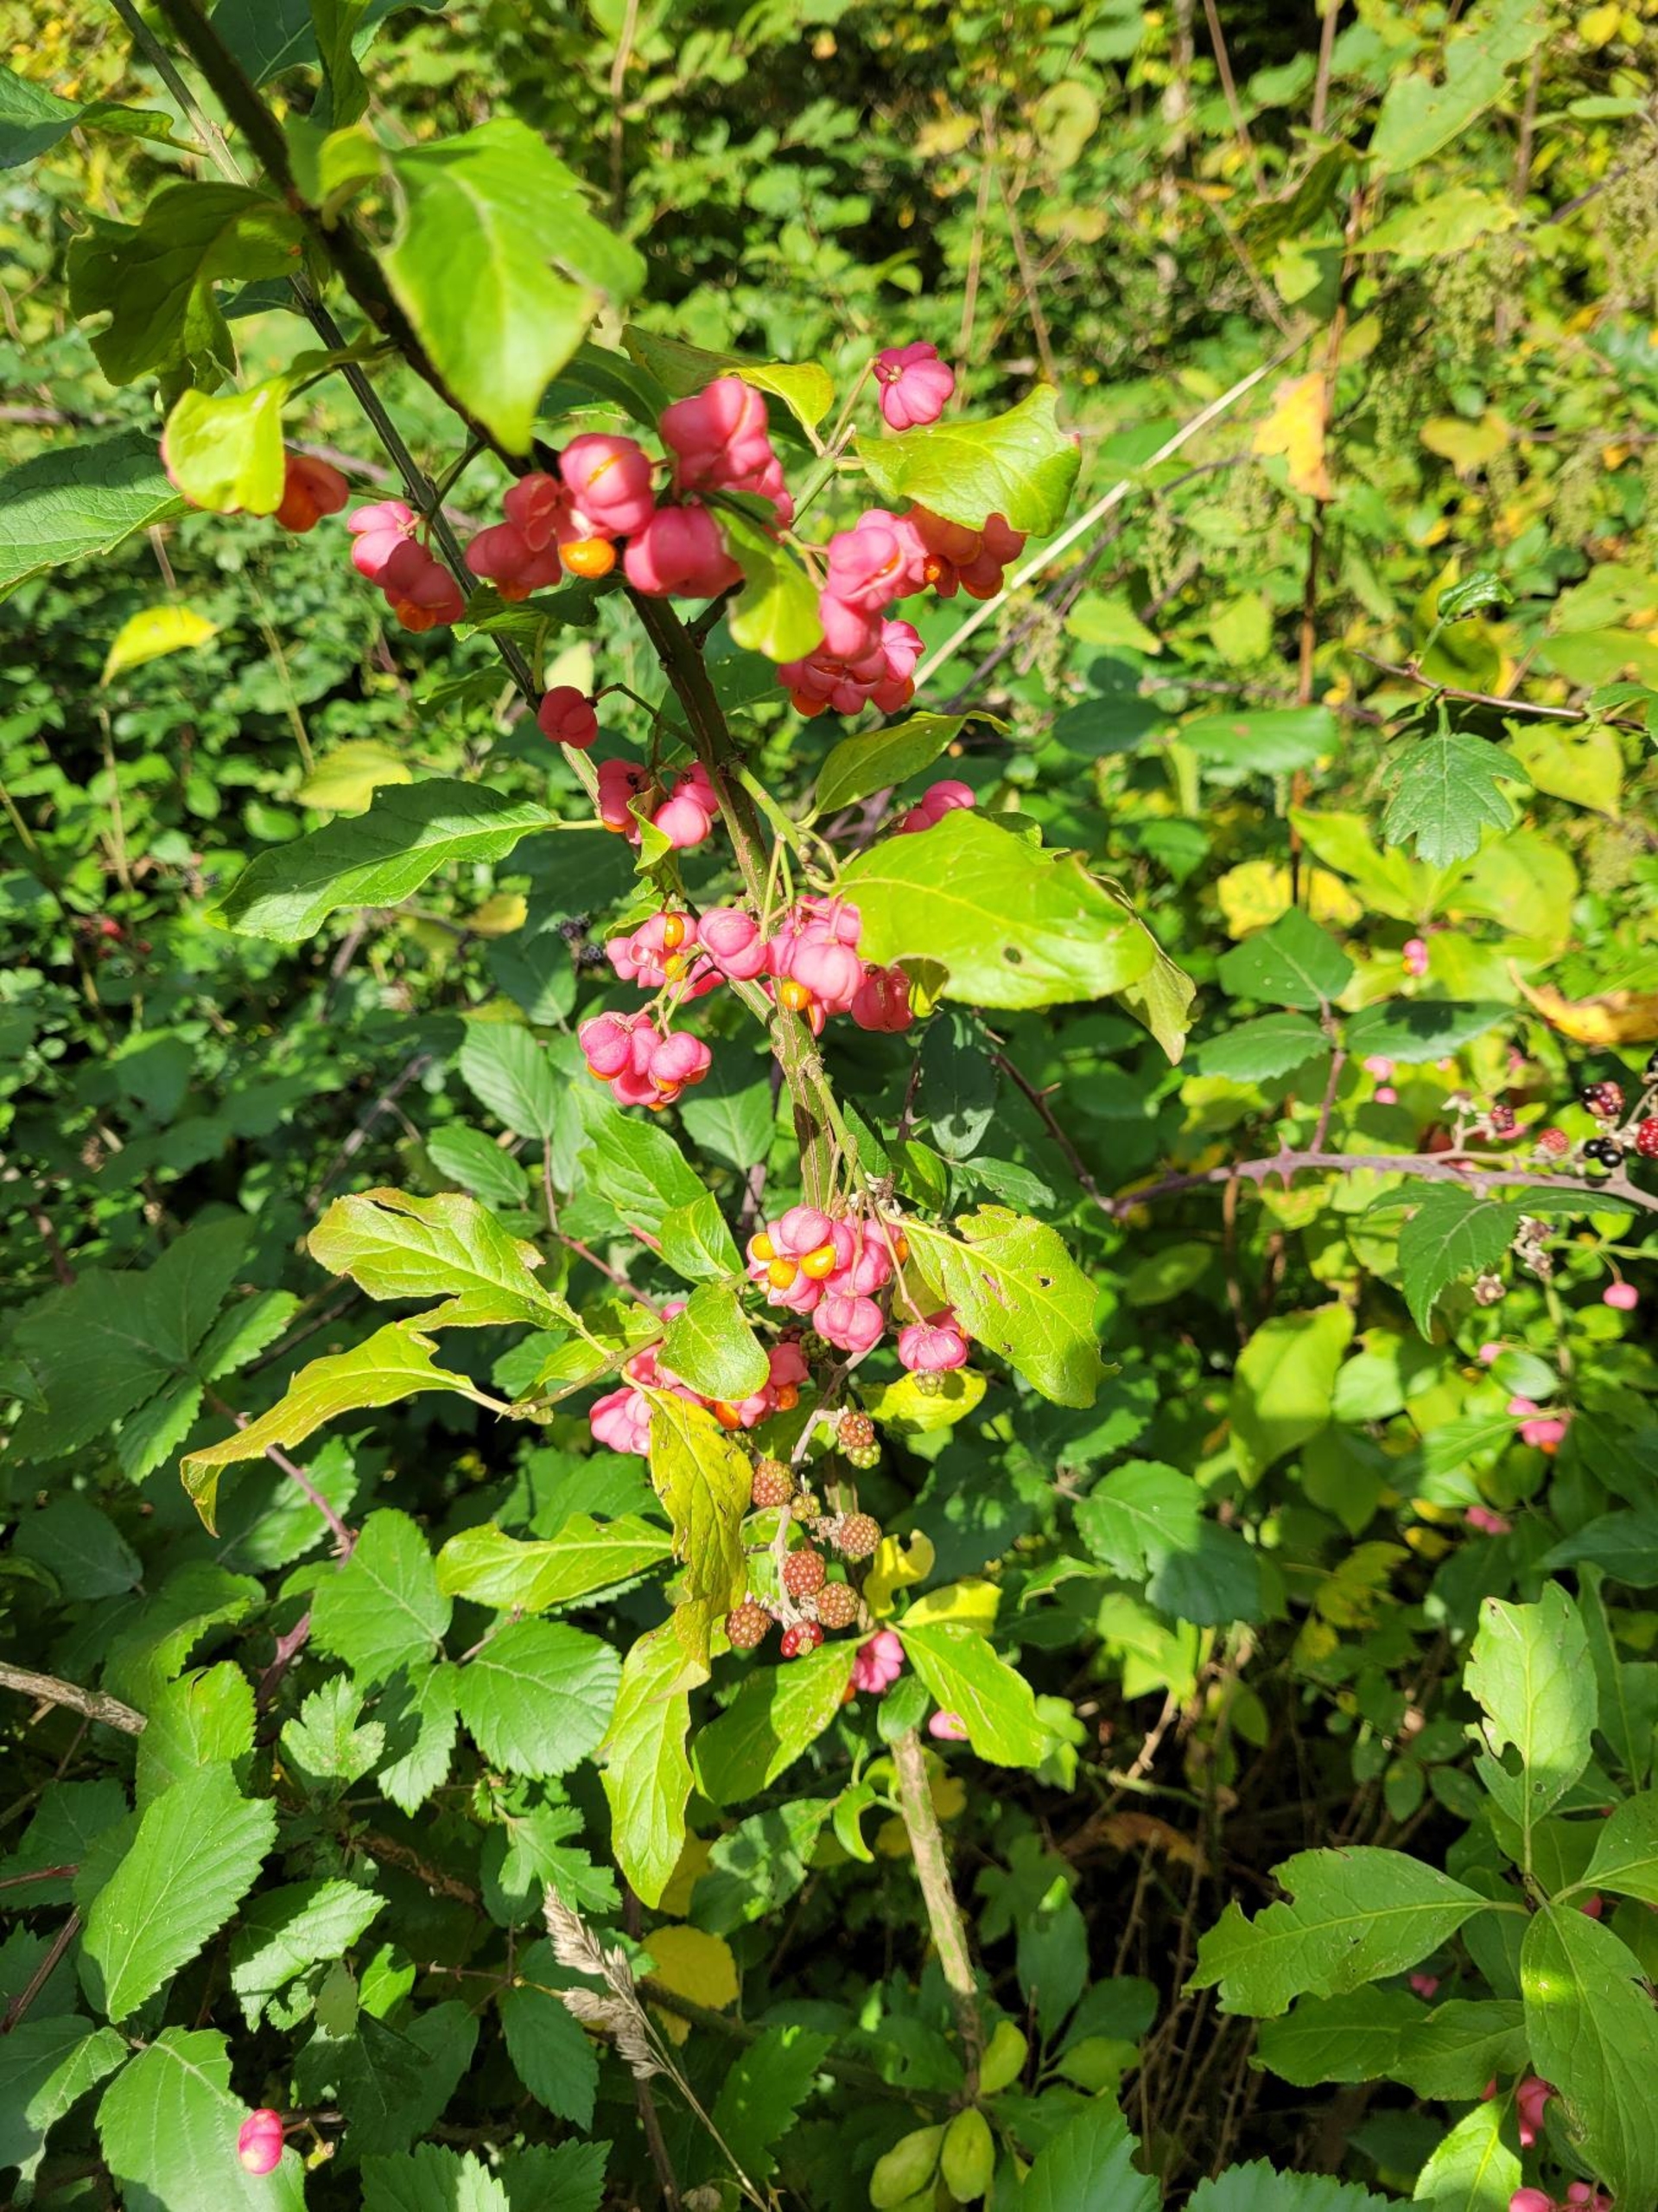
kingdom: Plantae
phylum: Tracheophyta
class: Magnoliopsida
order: Celastrales
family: Celastraceae
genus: Euonymus
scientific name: Euonymus europaeus
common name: Benved
